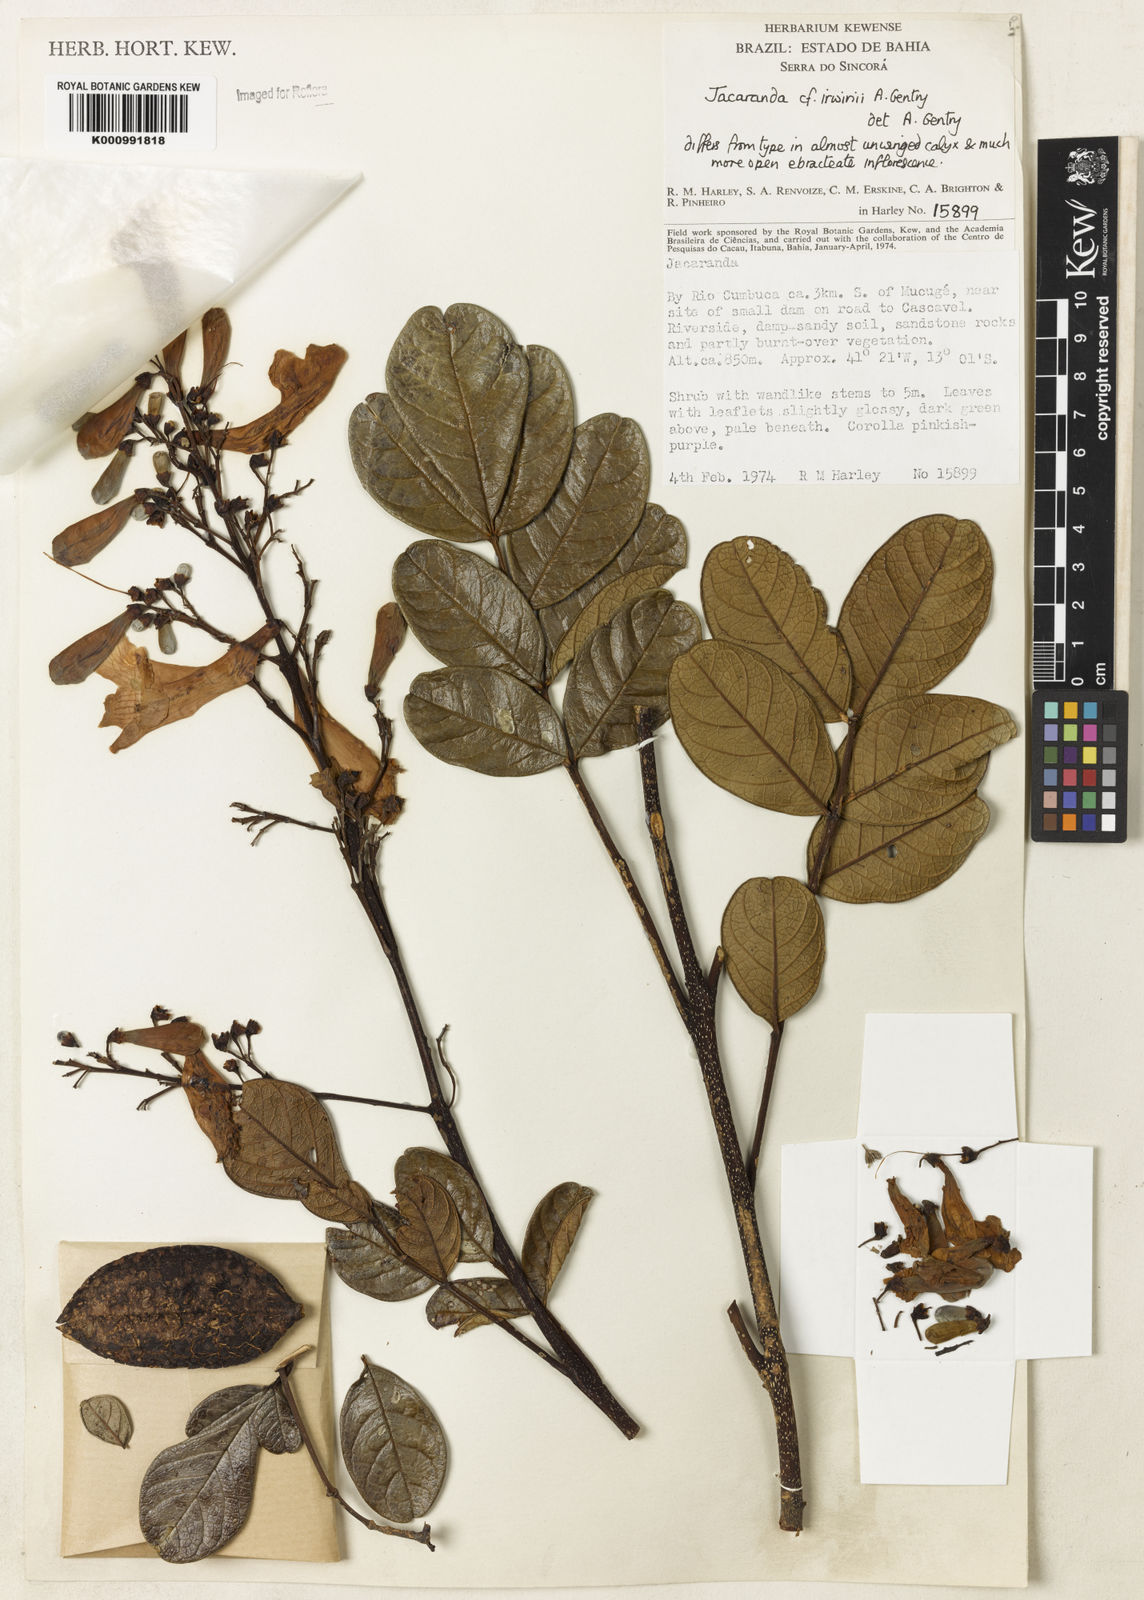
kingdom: Plantae
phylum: Tracheophyta
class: Magnoliopsida
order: Lamiales
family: Bignoniaceae
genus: Jacaranda
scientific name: Jacaranda irwinii
